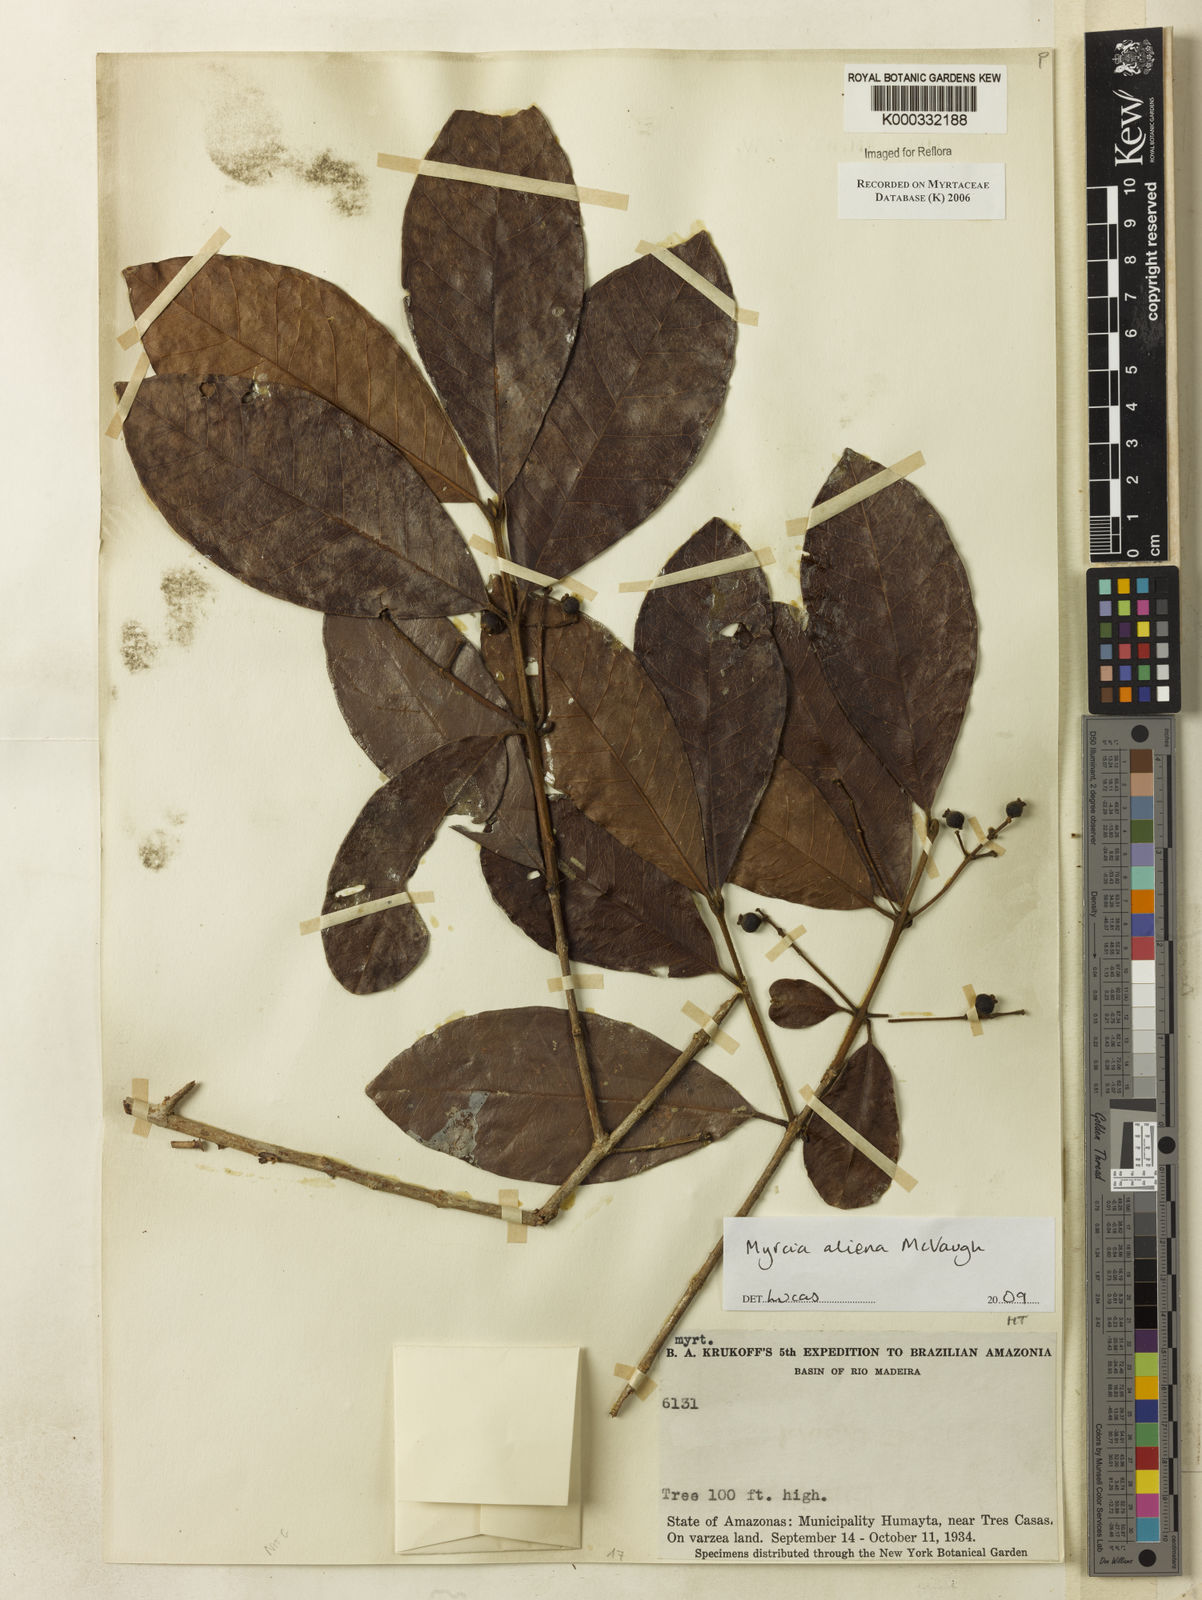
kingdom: Plantae
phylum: Tracheophyta
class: Magnoliopsida
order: Myrtales
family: Myrtaceae
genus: Myrcia
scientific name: Myrcia
